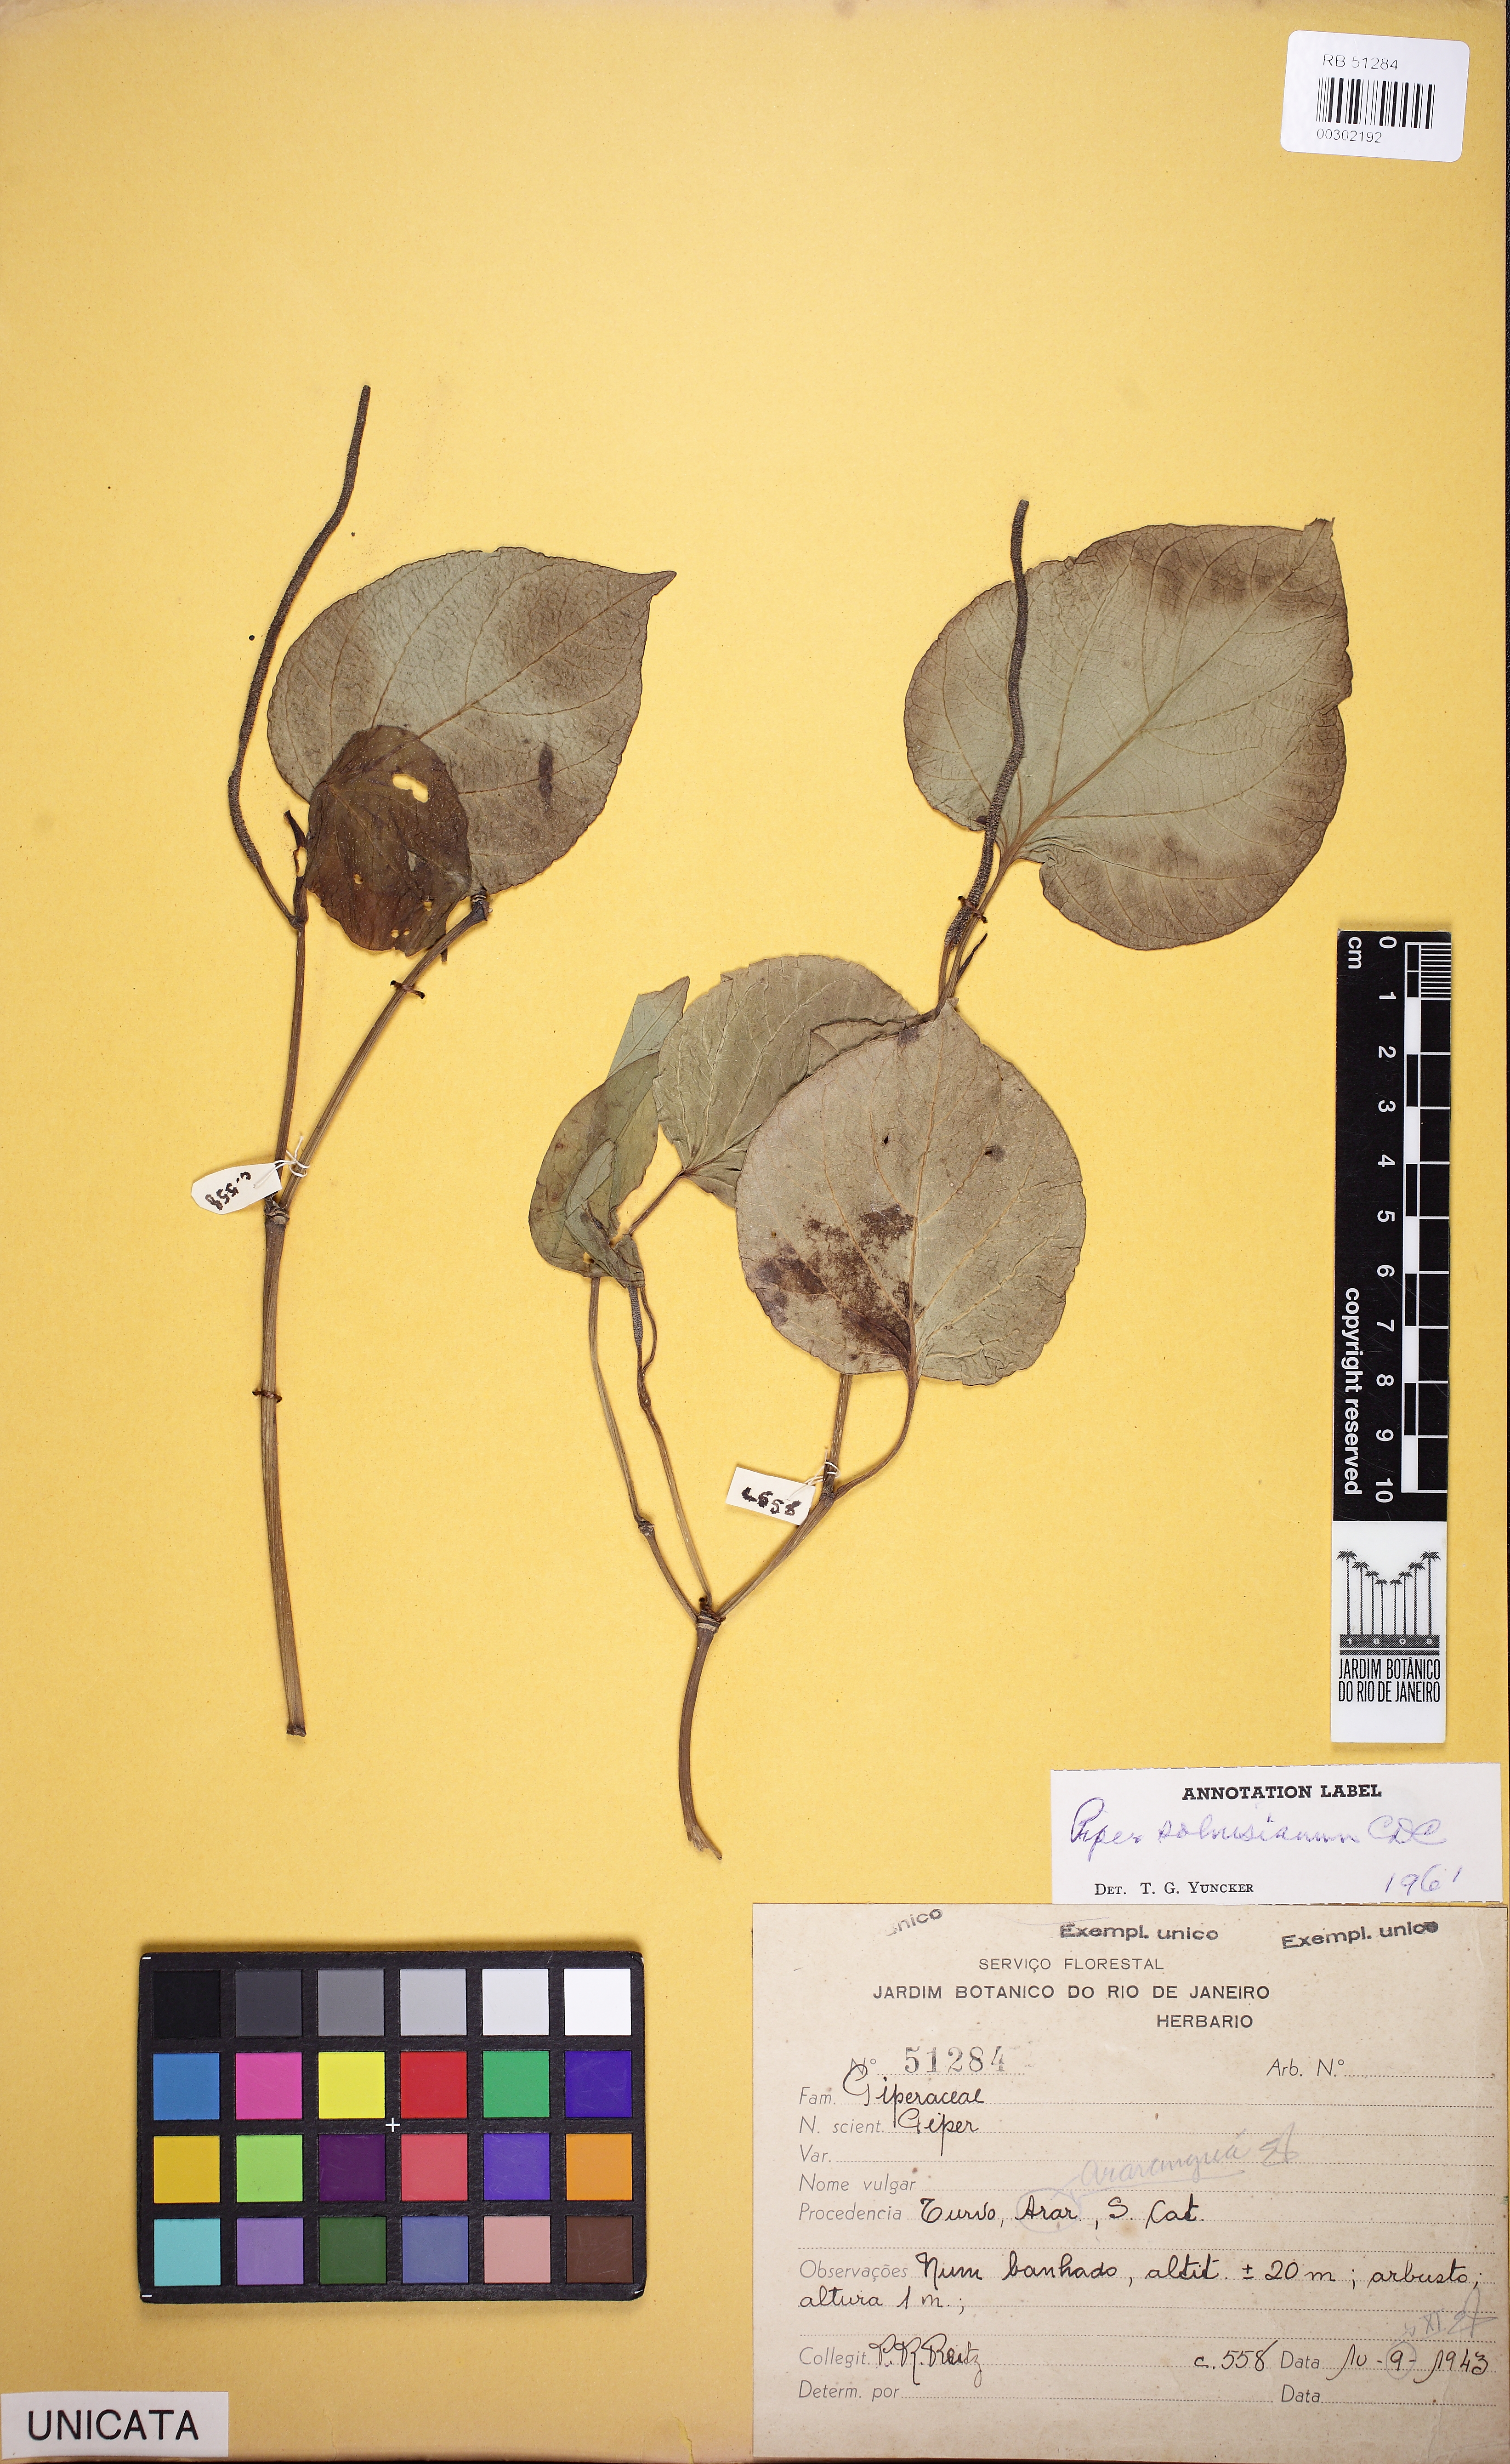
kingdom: Plantae
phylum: Tracheophyta
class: Magnoliopsida
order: Piperales
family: Piperaceae
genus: Piper
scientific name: Piper solmsianum
